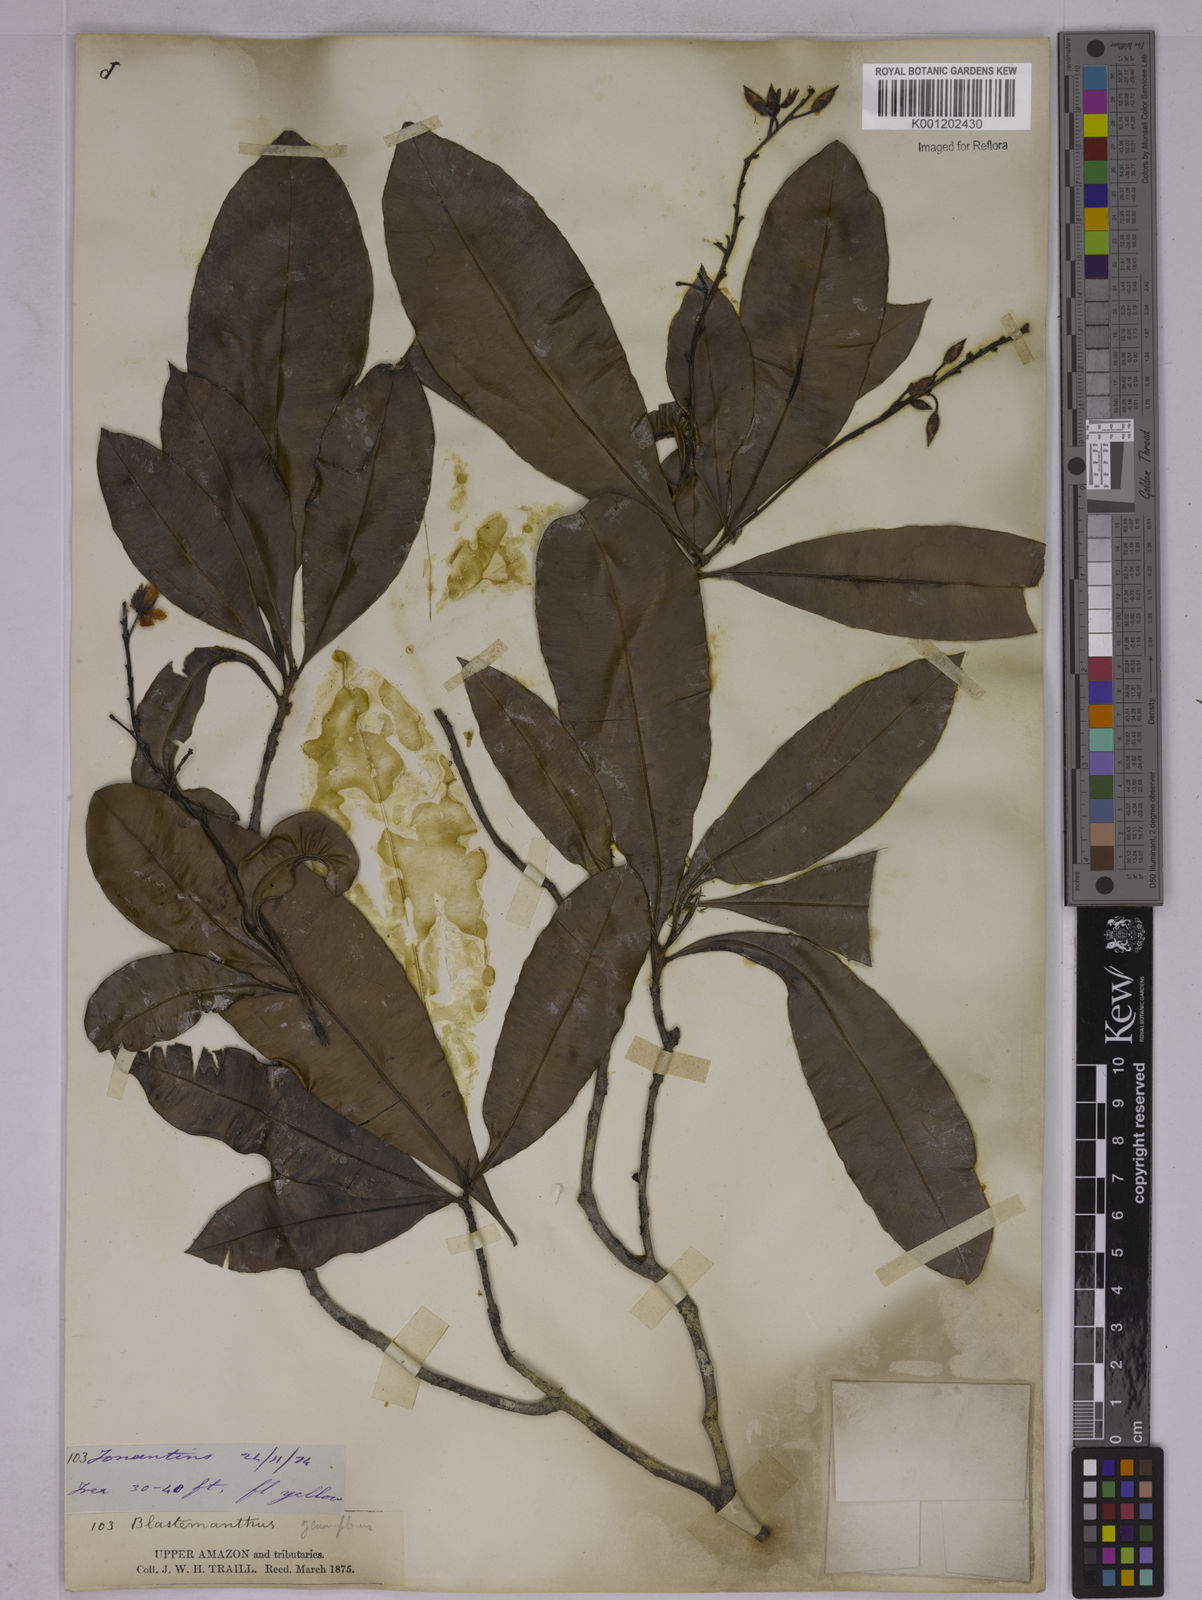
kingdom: Plantae
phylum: Tracheophyta
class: Magnoliopsida
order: Malpighiales
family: Ochnaceae
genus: Blastemanthus
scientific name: Blastemanthus gemmiflorus
